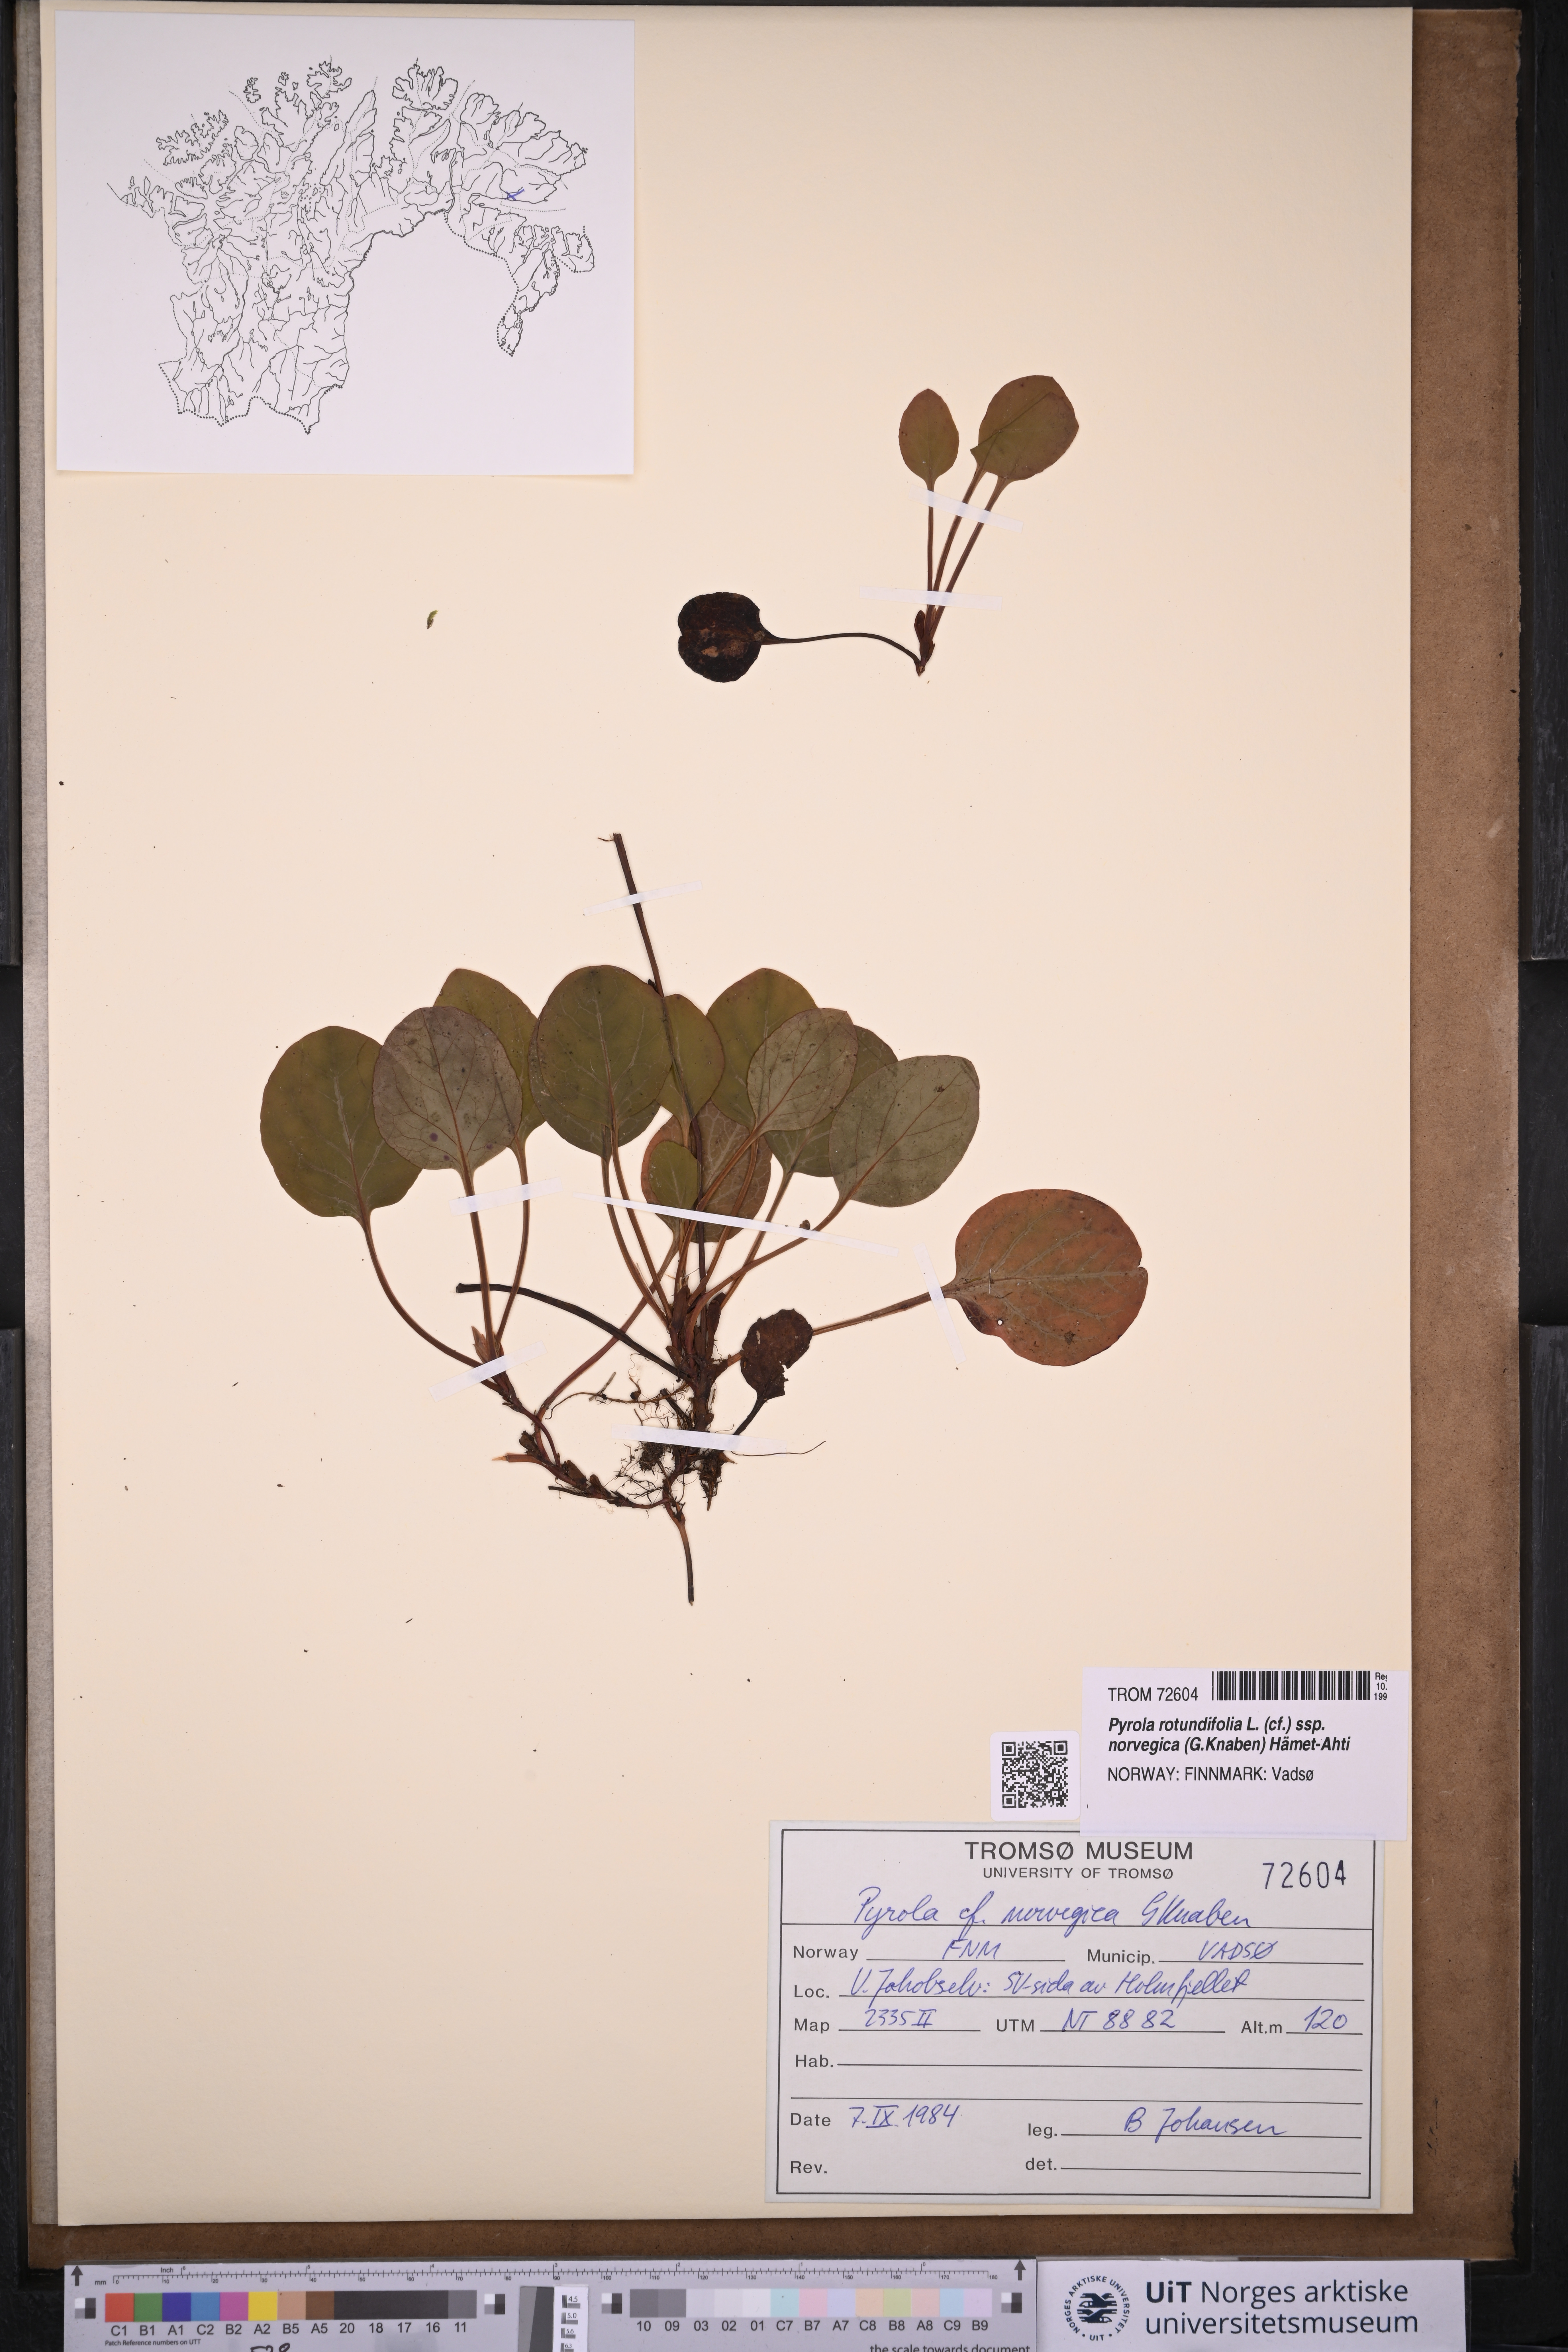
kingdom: Plantae
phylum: Tracheophyta
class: Magnoliopsida
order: Ericales
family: Ericaceae
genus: Pyrola
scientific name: Pyrola rotundifolia
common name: Round-leaved wintergreen
